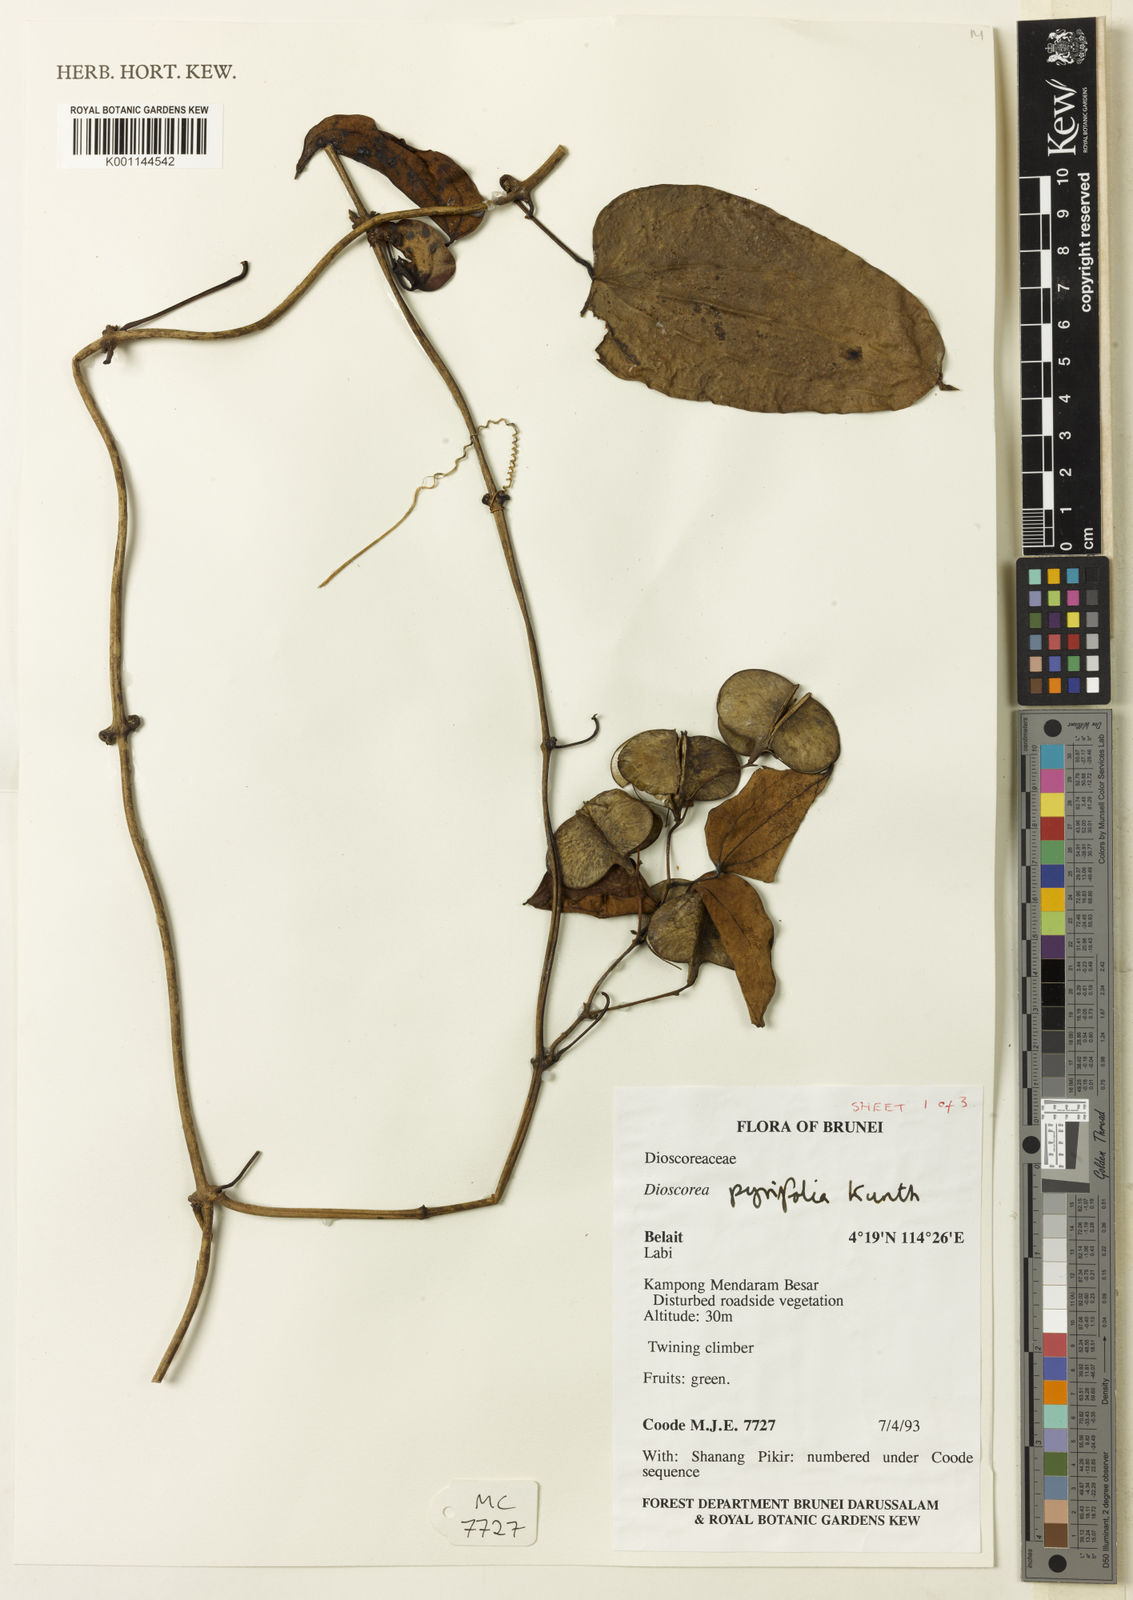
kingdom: Plantae
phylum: Tracheophyta
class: Liliopsida
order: Dioscoreales
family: Dioscoreaceae
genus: Dioscorea
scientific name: Dioscorea pyrifolia
